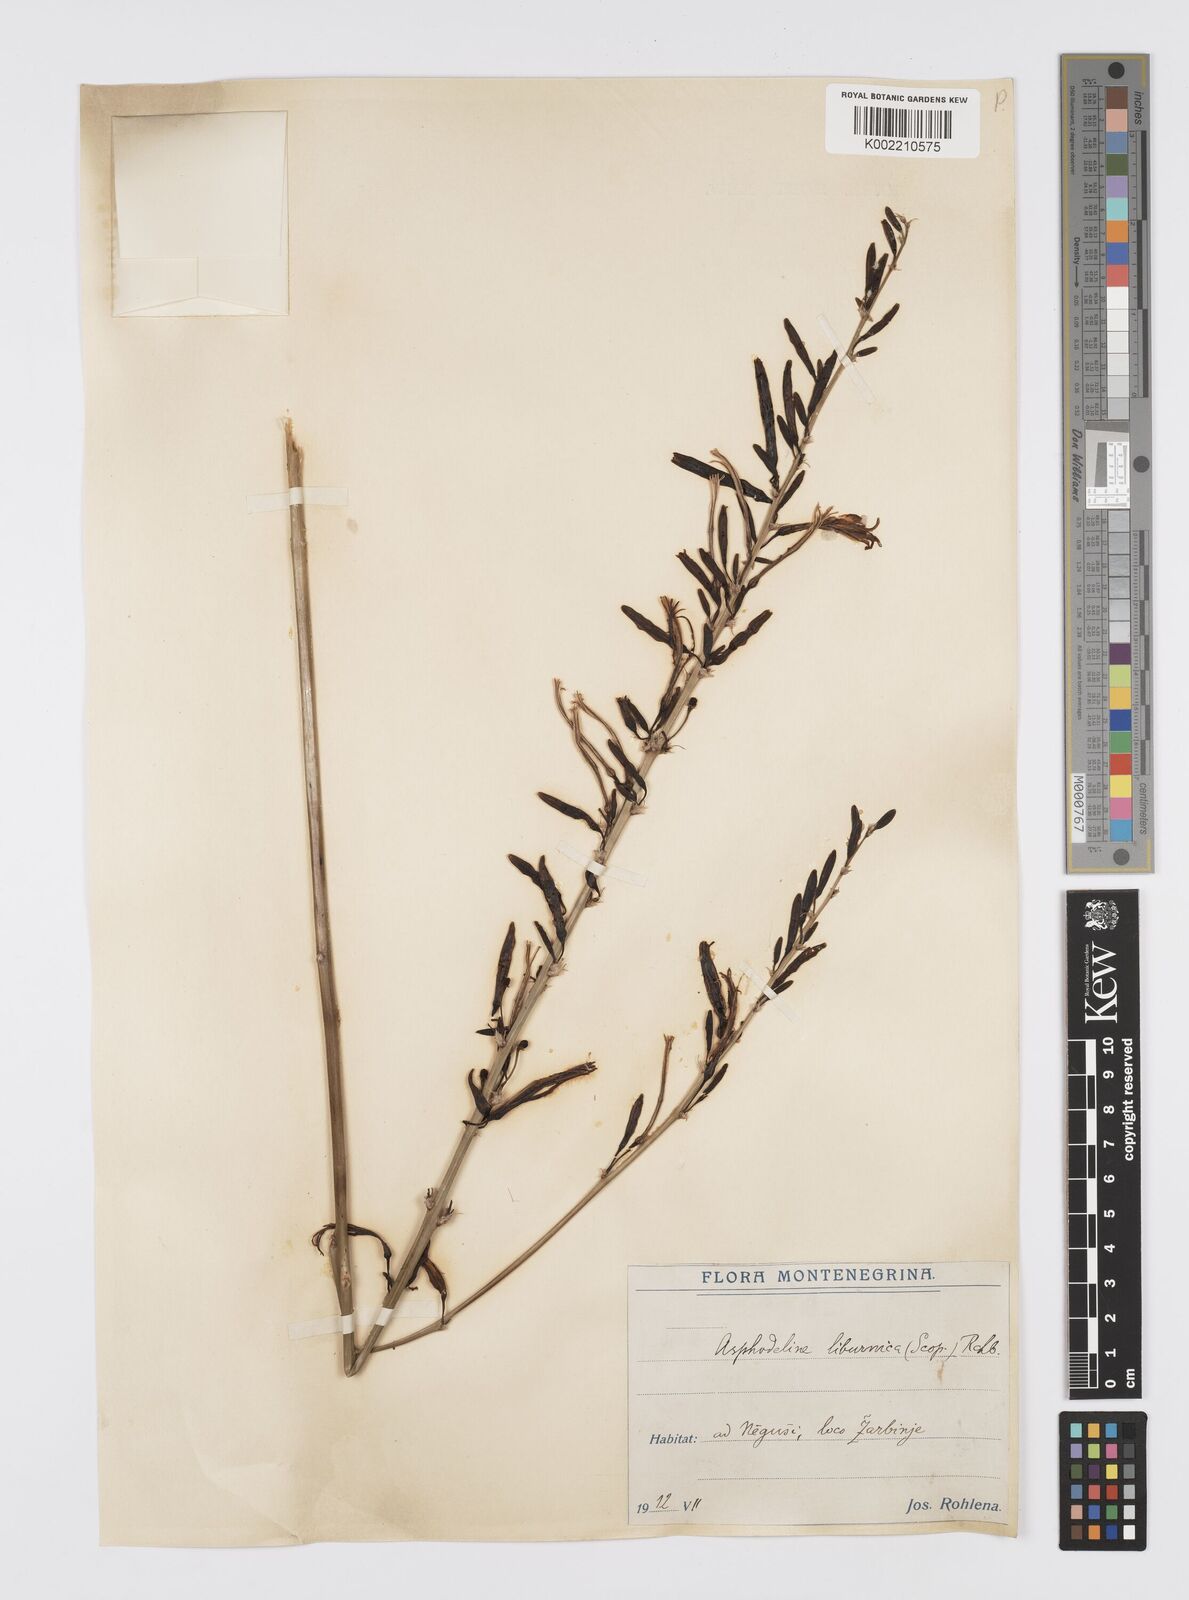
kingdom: Plantae
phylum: Tracheophyta
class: Liliopsida
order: Asparagales
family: Asphodelaceae
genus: Asphodeline
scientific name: Asphodeline liburnica
